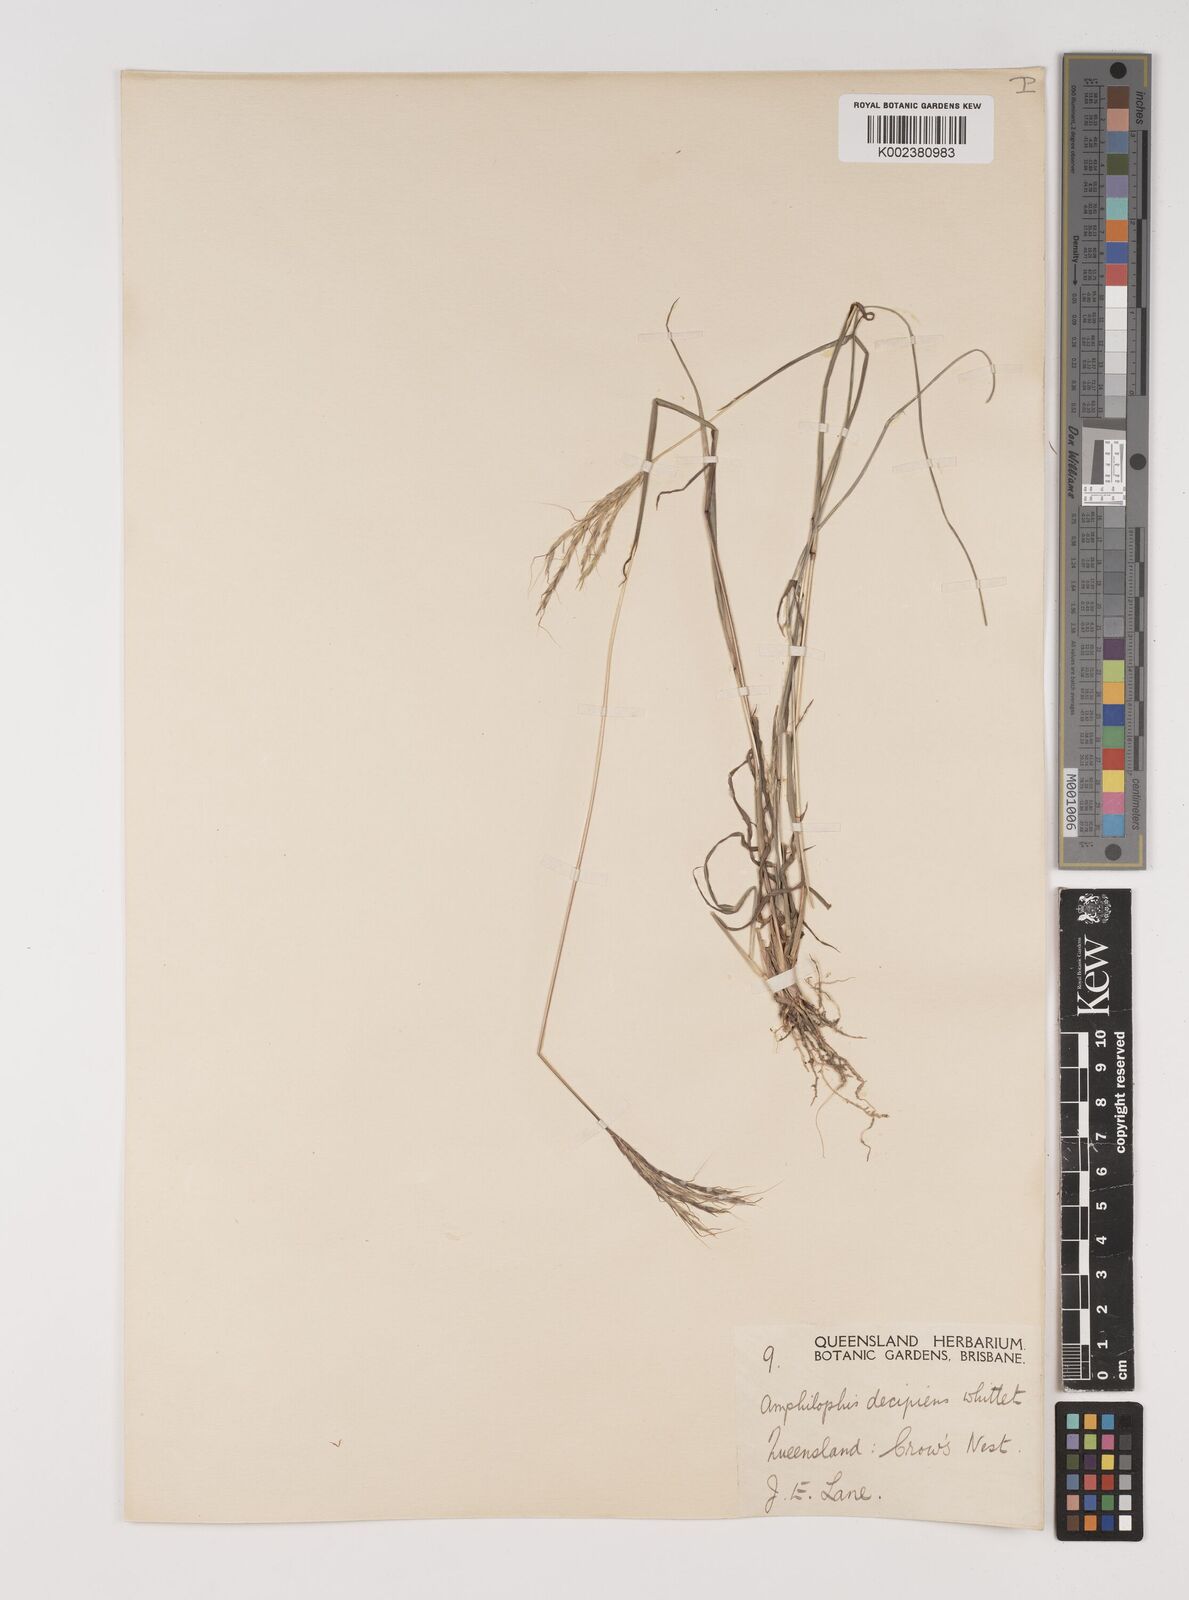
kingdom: Plantae
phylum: Tracheophyta
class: Liliopsida
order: Poales
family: Poaceae
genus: Bothriochloa
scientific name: Bothriochloa decipiens
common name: Pitted-bluegrass
